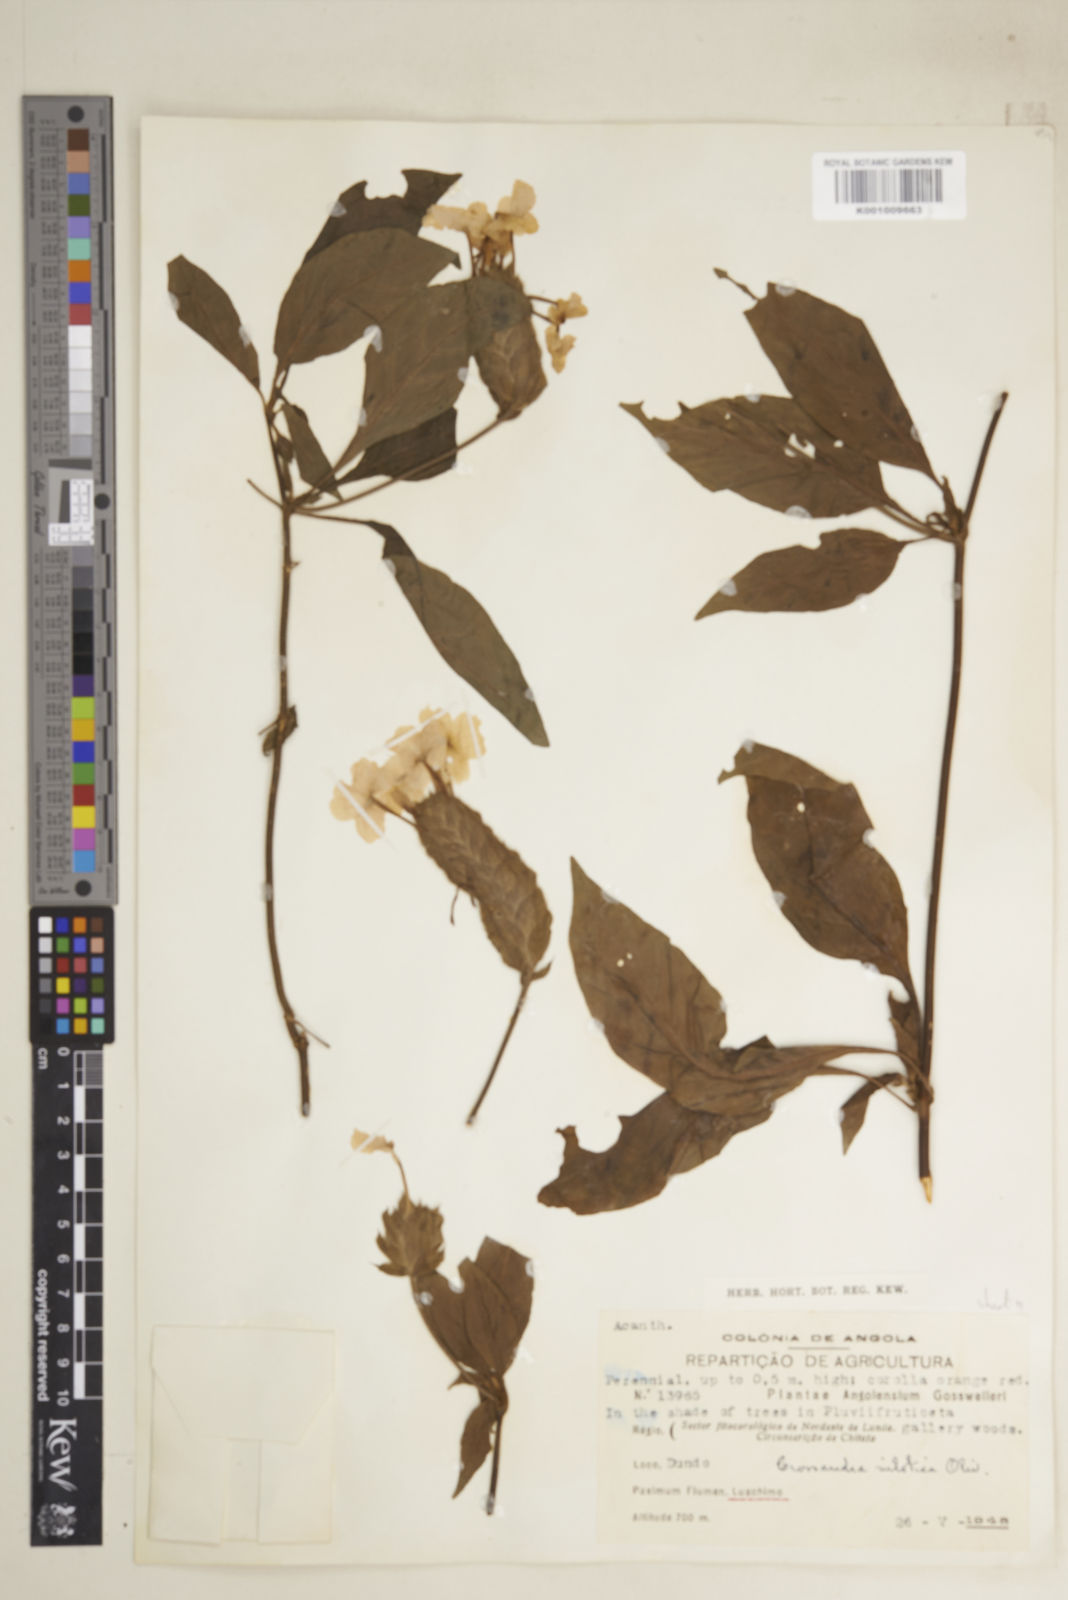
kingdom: Plantae
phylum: Tracheophyta
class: Magnoliopsida
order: Lamiales
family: Acanthaceae
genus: Crossandra
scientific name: Crossandra nilotica
